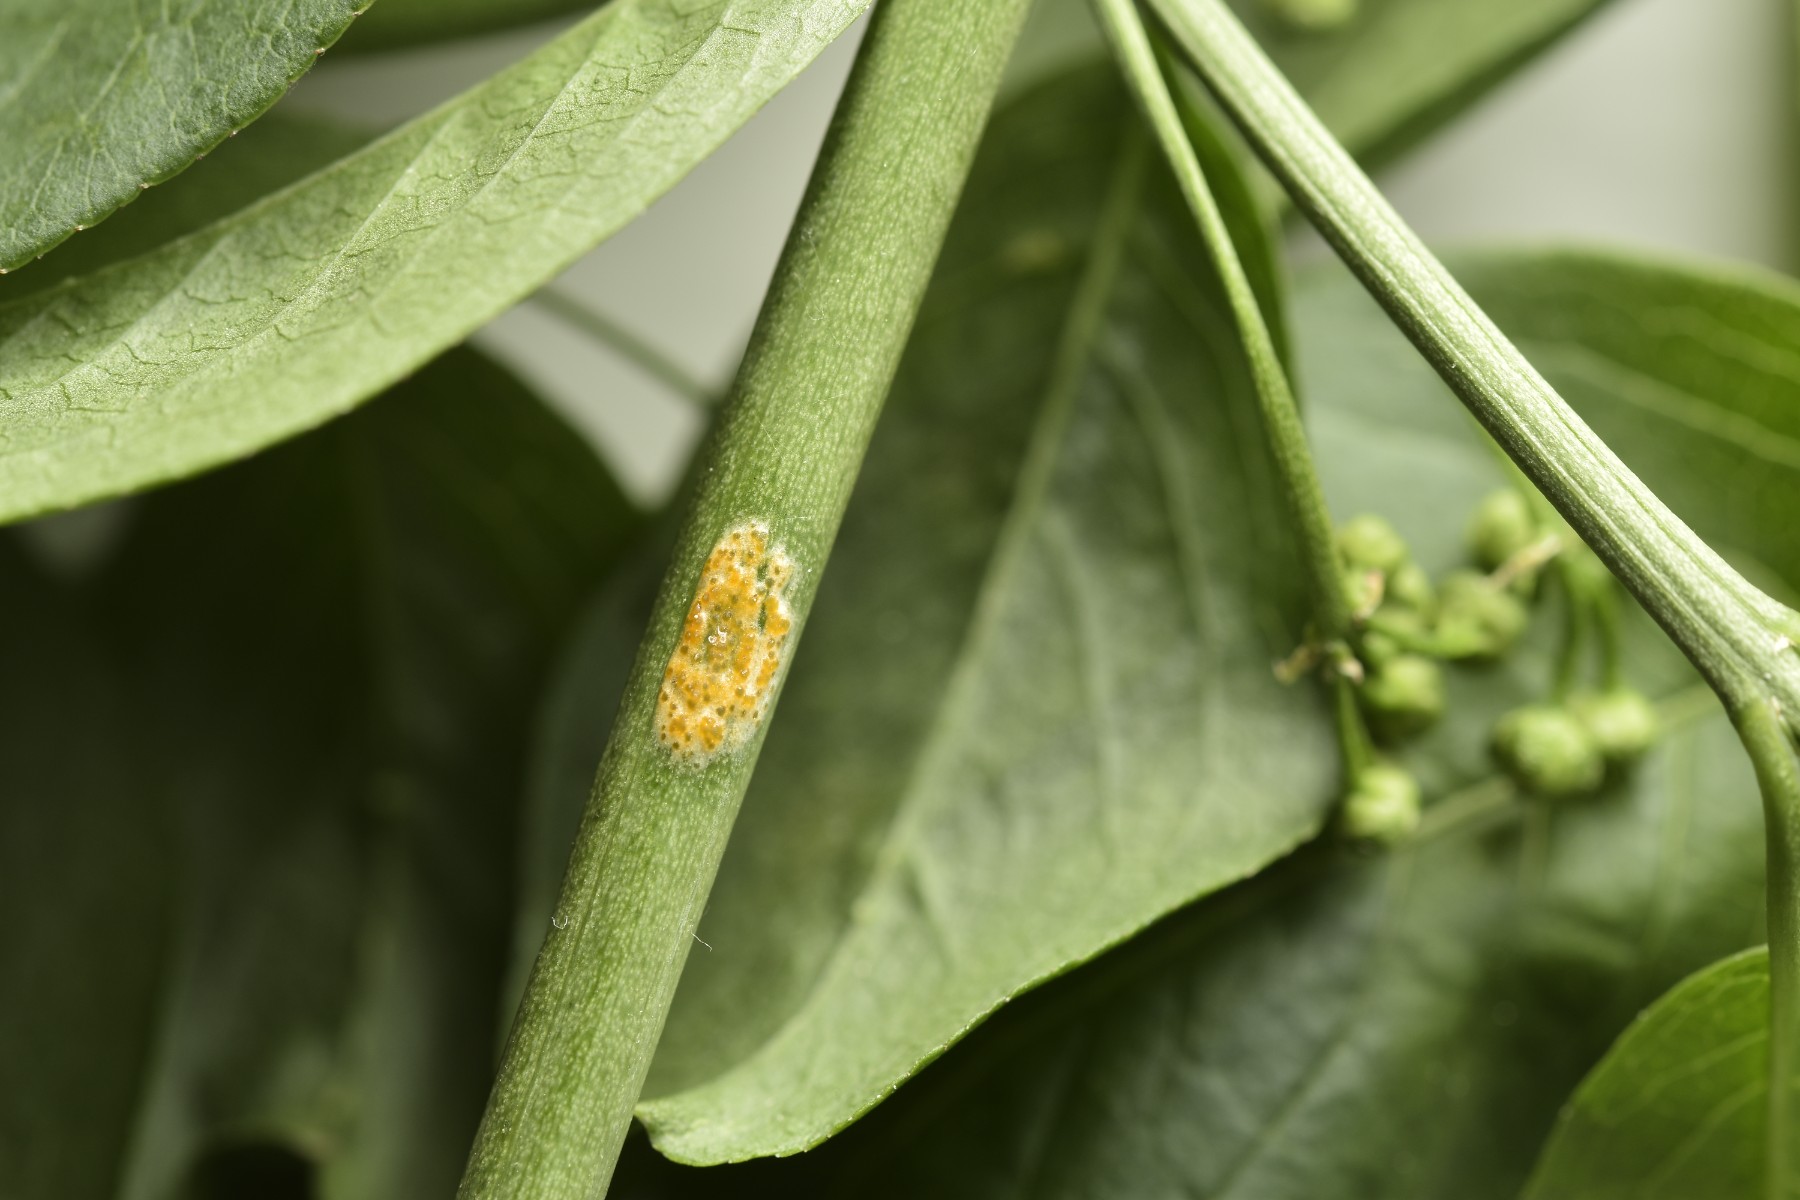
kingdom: Fungi
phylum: Basidiomycota
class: Pucciniomycetes
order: Pucciniales
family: Melampsoraceae
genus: Melampsora
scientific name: Melampsora epitea
